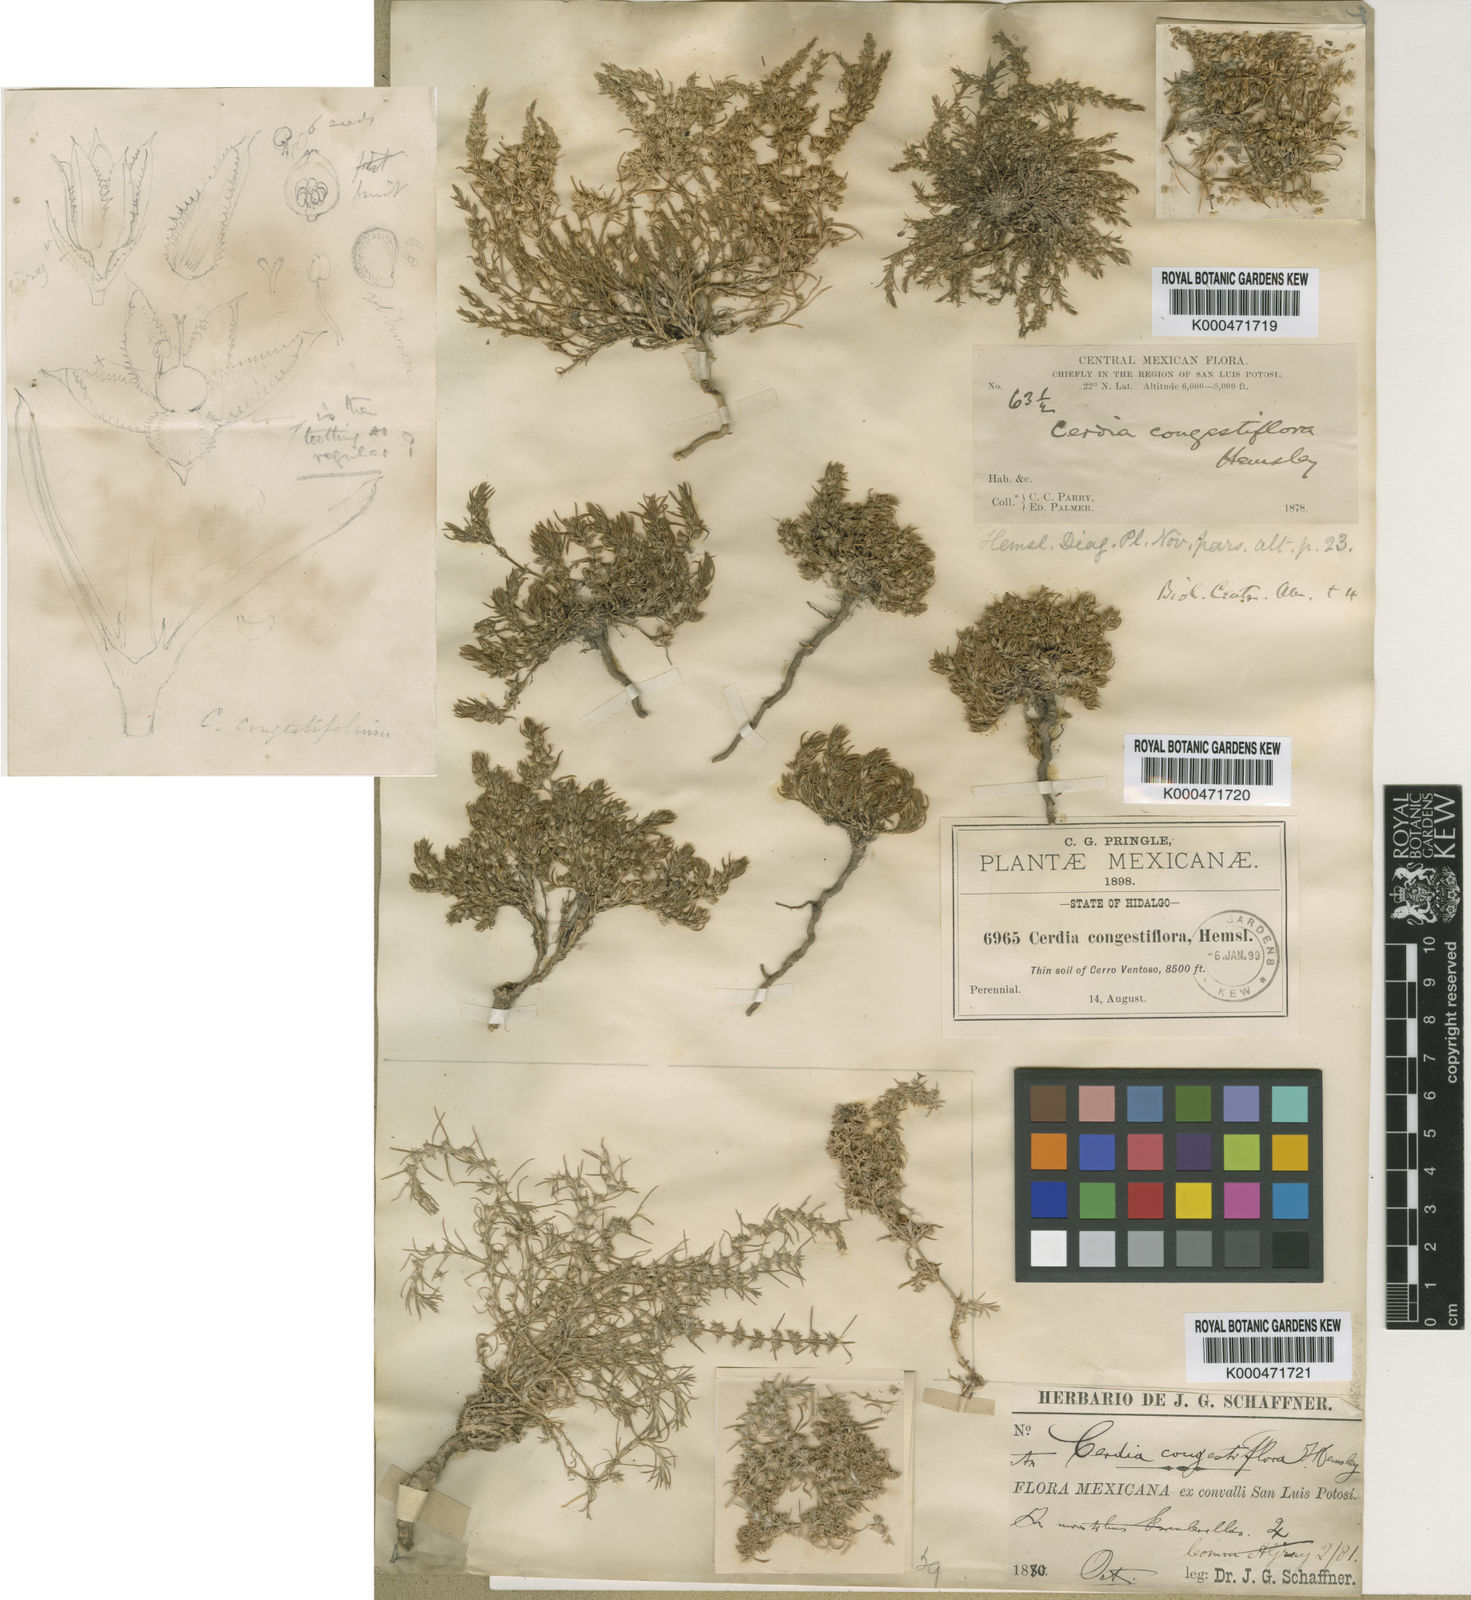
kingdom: Plantae
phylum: Tracheophyta
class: Magnoliopsida
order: Caryophyllales
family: Caryophyllaceae
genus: Cerdia
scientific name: Cerdia virescens
